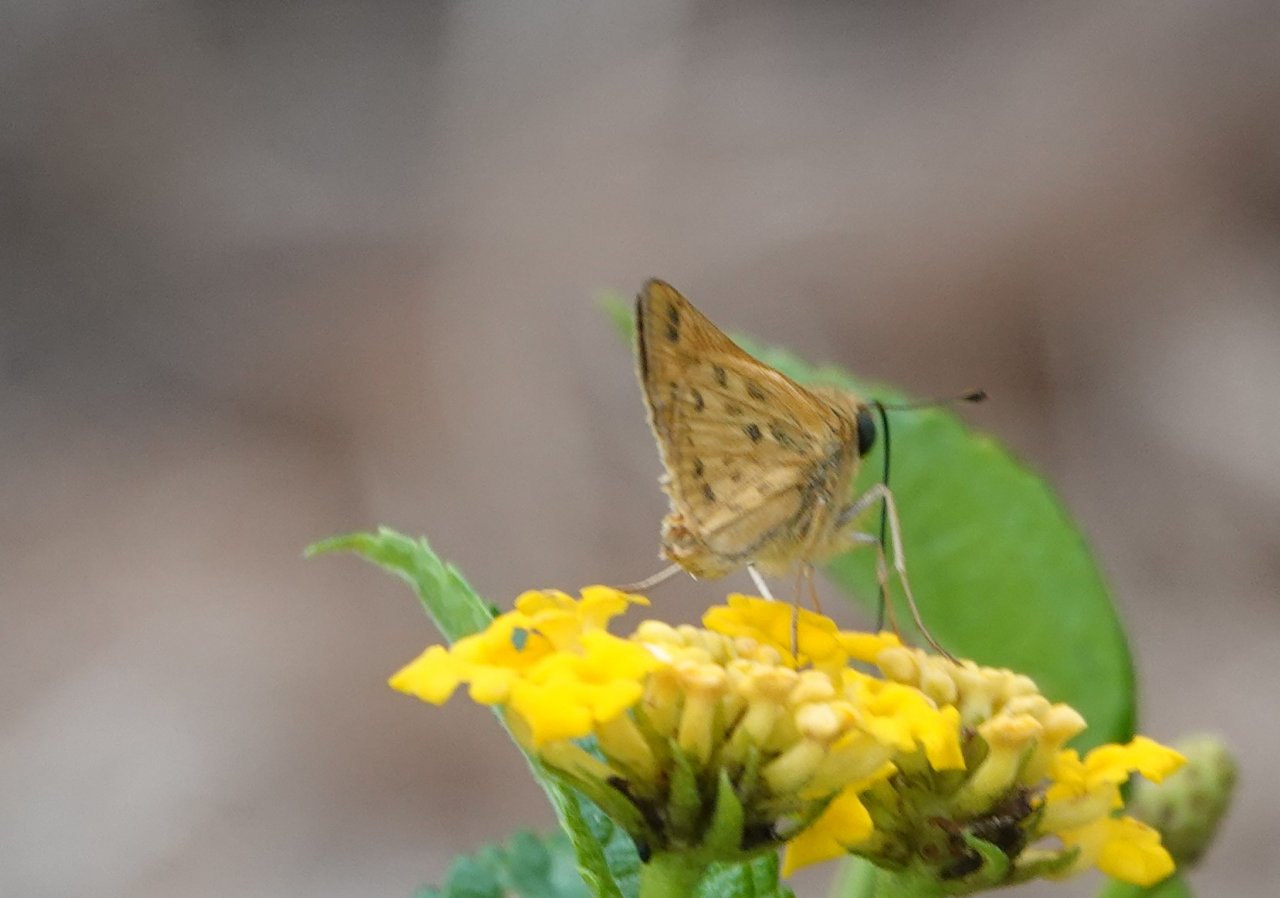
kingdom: Animalia
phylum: Arthropoda
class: Insecta
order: Lepidoptera
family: Hesperiidae
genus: Hylephila
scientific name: Hylephila phyleus
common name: Fiery Skipper
